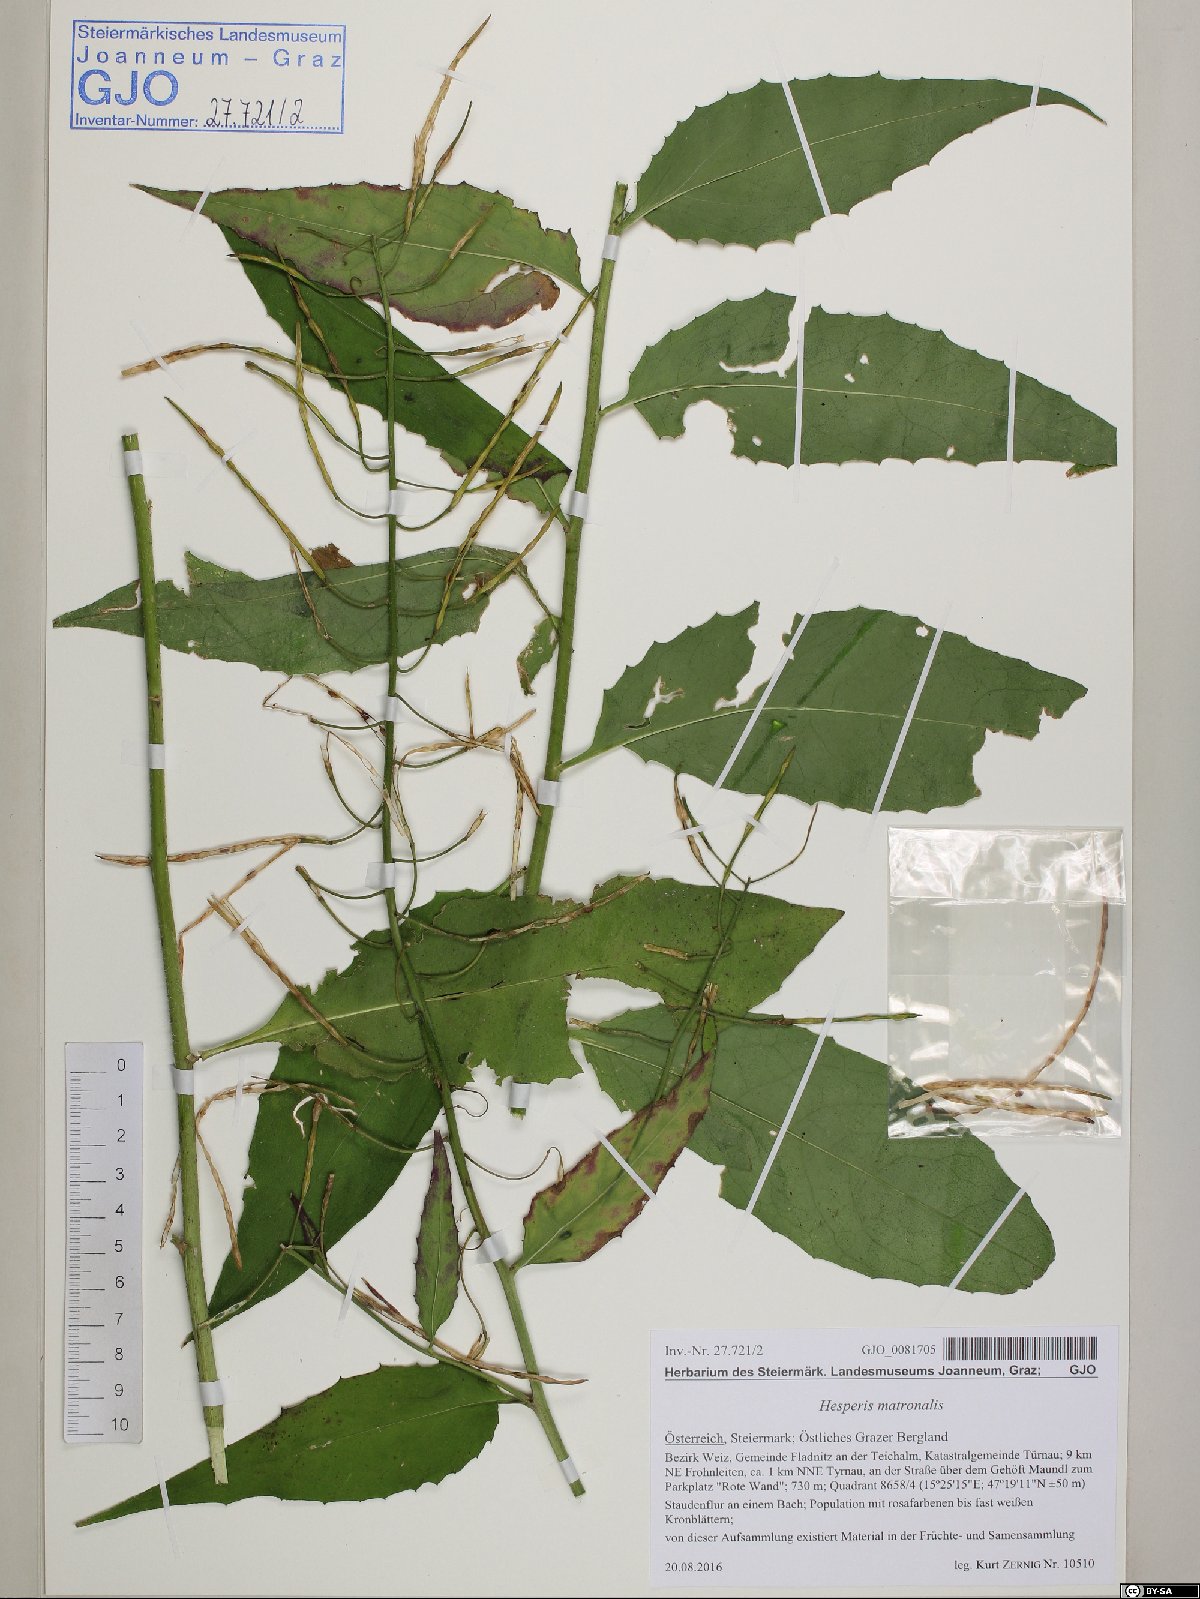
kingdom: Plantae
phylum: Tracheophyta
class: Magnoliopsida
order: Brassicales
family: Brassicaceae
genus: Hesperis
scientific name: Hesperis matronalis
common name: Dame's-violet
